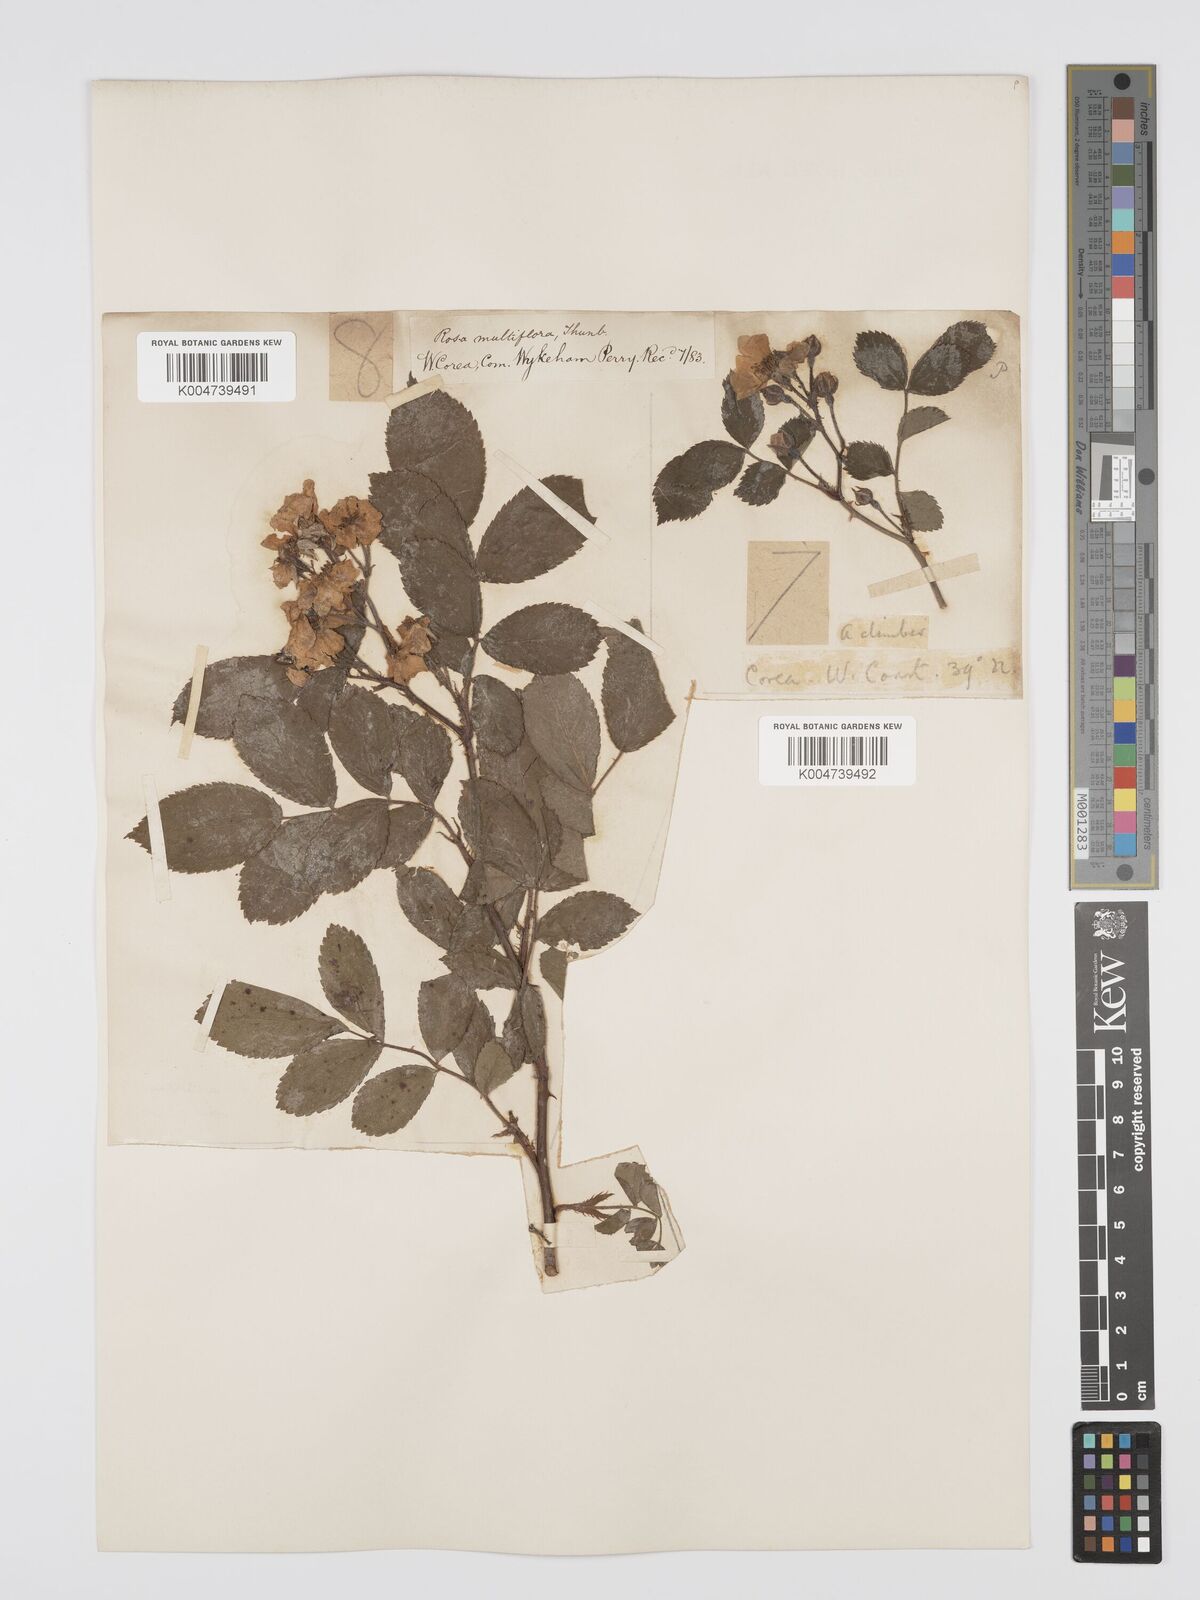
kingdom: Plantae
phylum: Tracheophyta
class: Magnoliopsida
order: Rosales
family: Rosaceae
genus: Rosa
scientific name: Rosa
